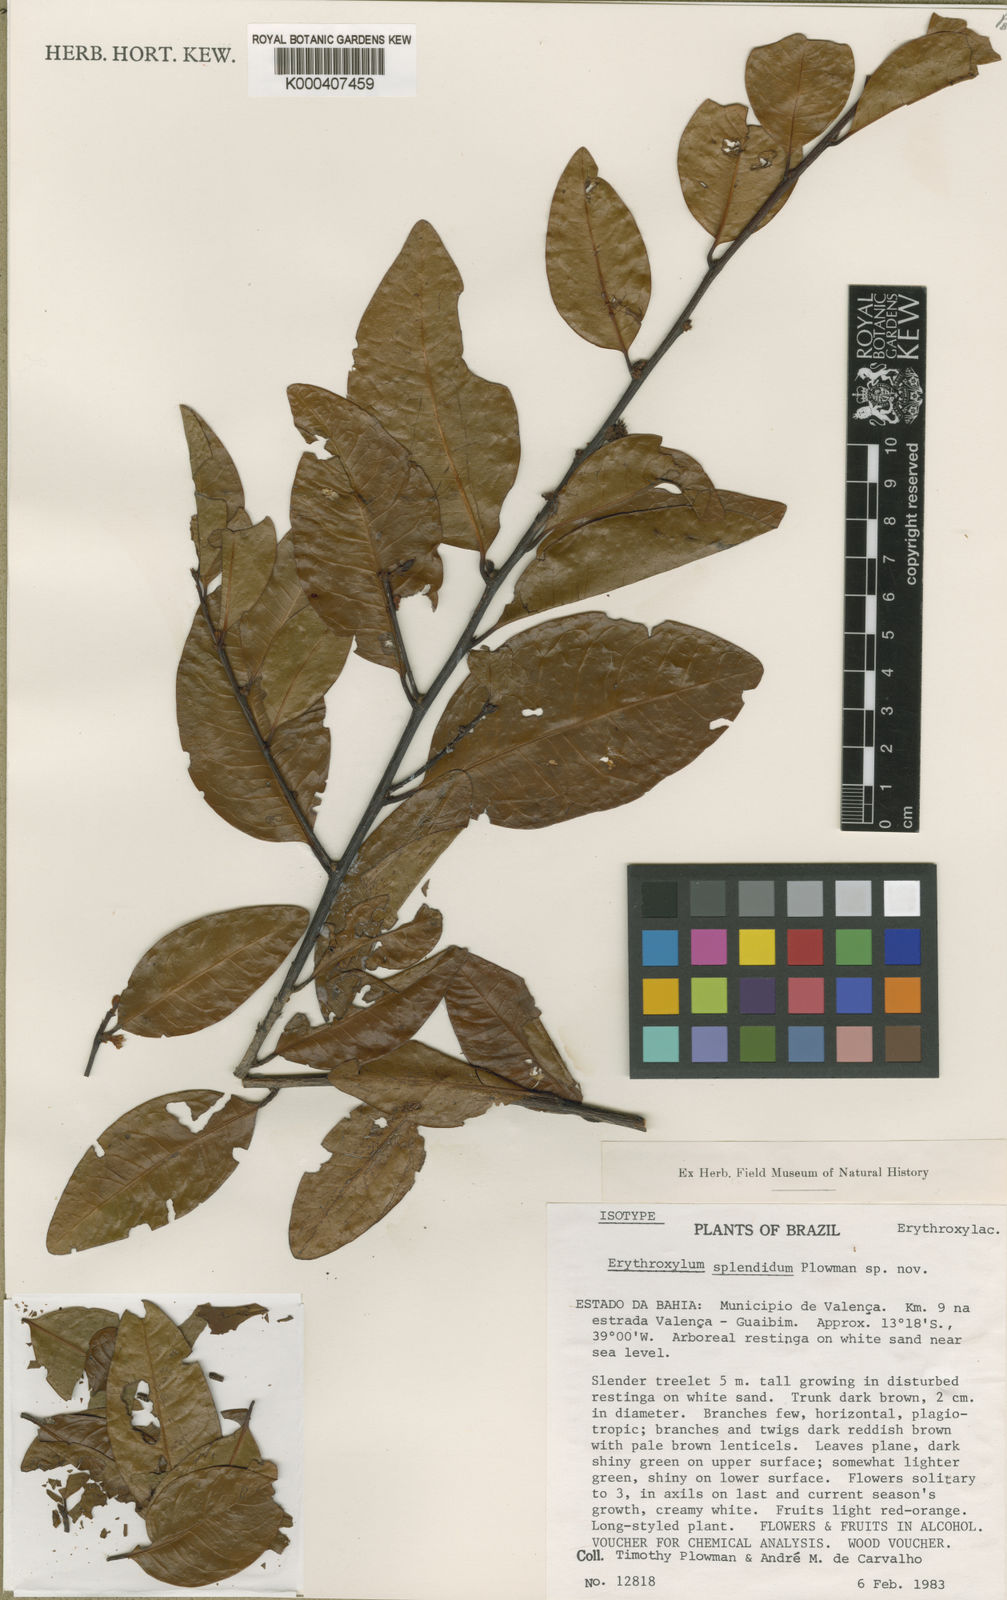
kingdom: Plantae
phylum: Tracheophyta
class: Magnoliopsida
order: Malpighiales
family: Erythroxylaceae
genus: Erythroxylum
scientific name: Erythroxylum splendidum
